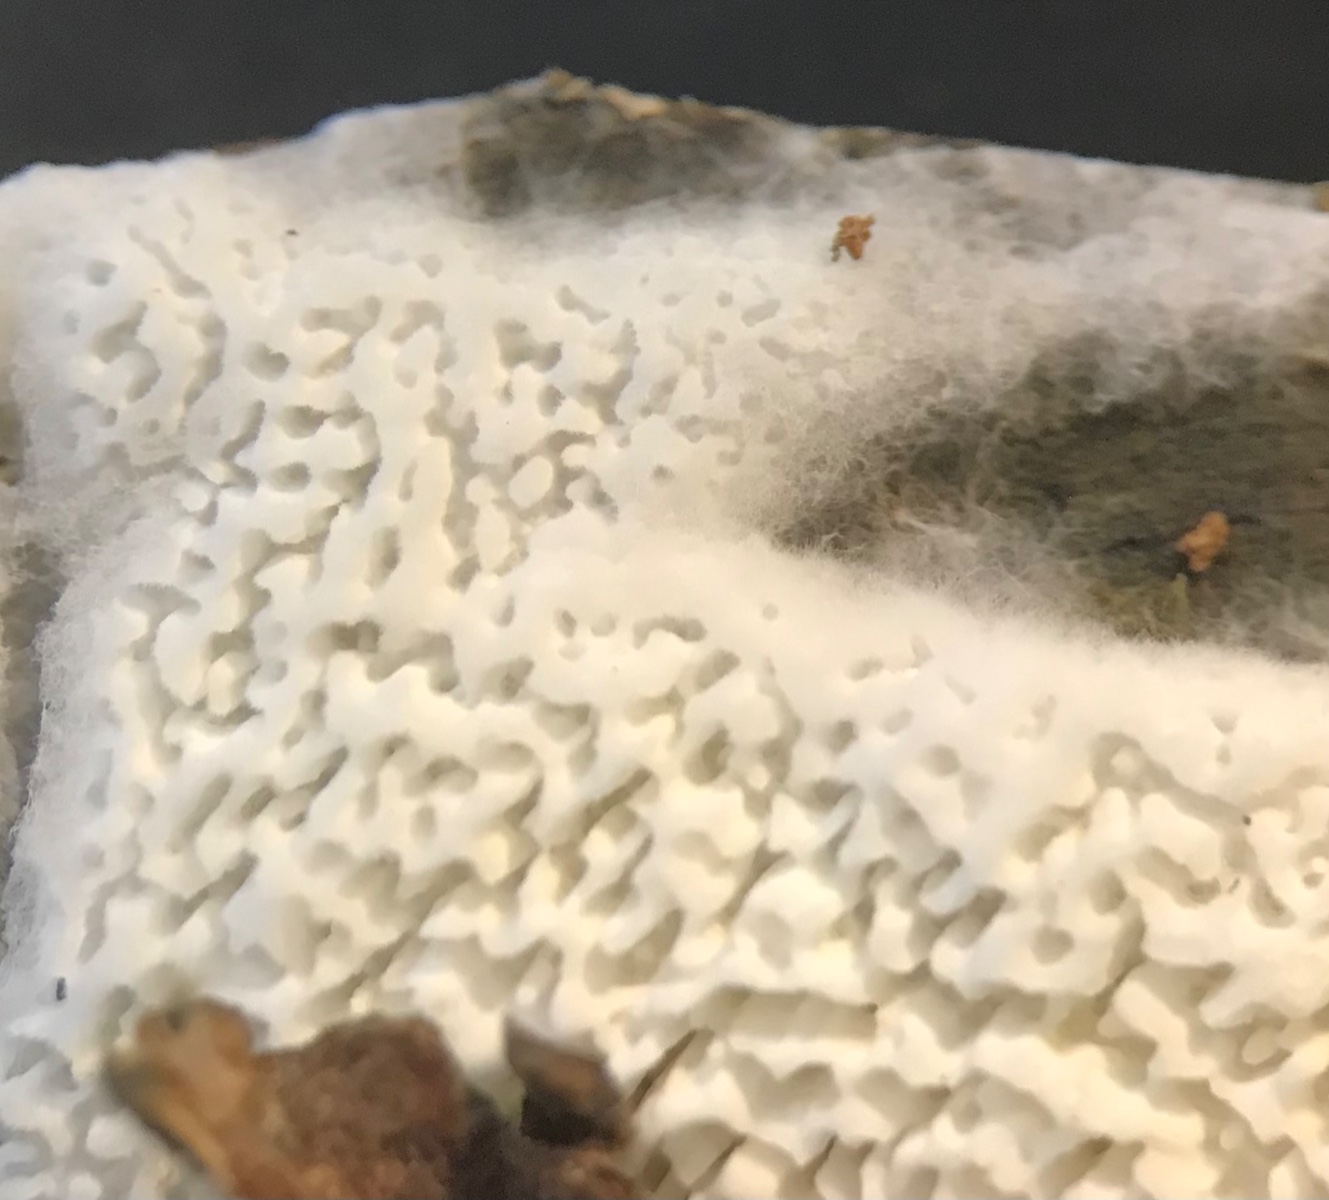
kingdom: Fungi
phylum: Basidiomycota
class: Agaricomycetes
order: Polyporales
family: Fomitopsidaceae
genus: Anomoporia
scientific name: Anomoporia
